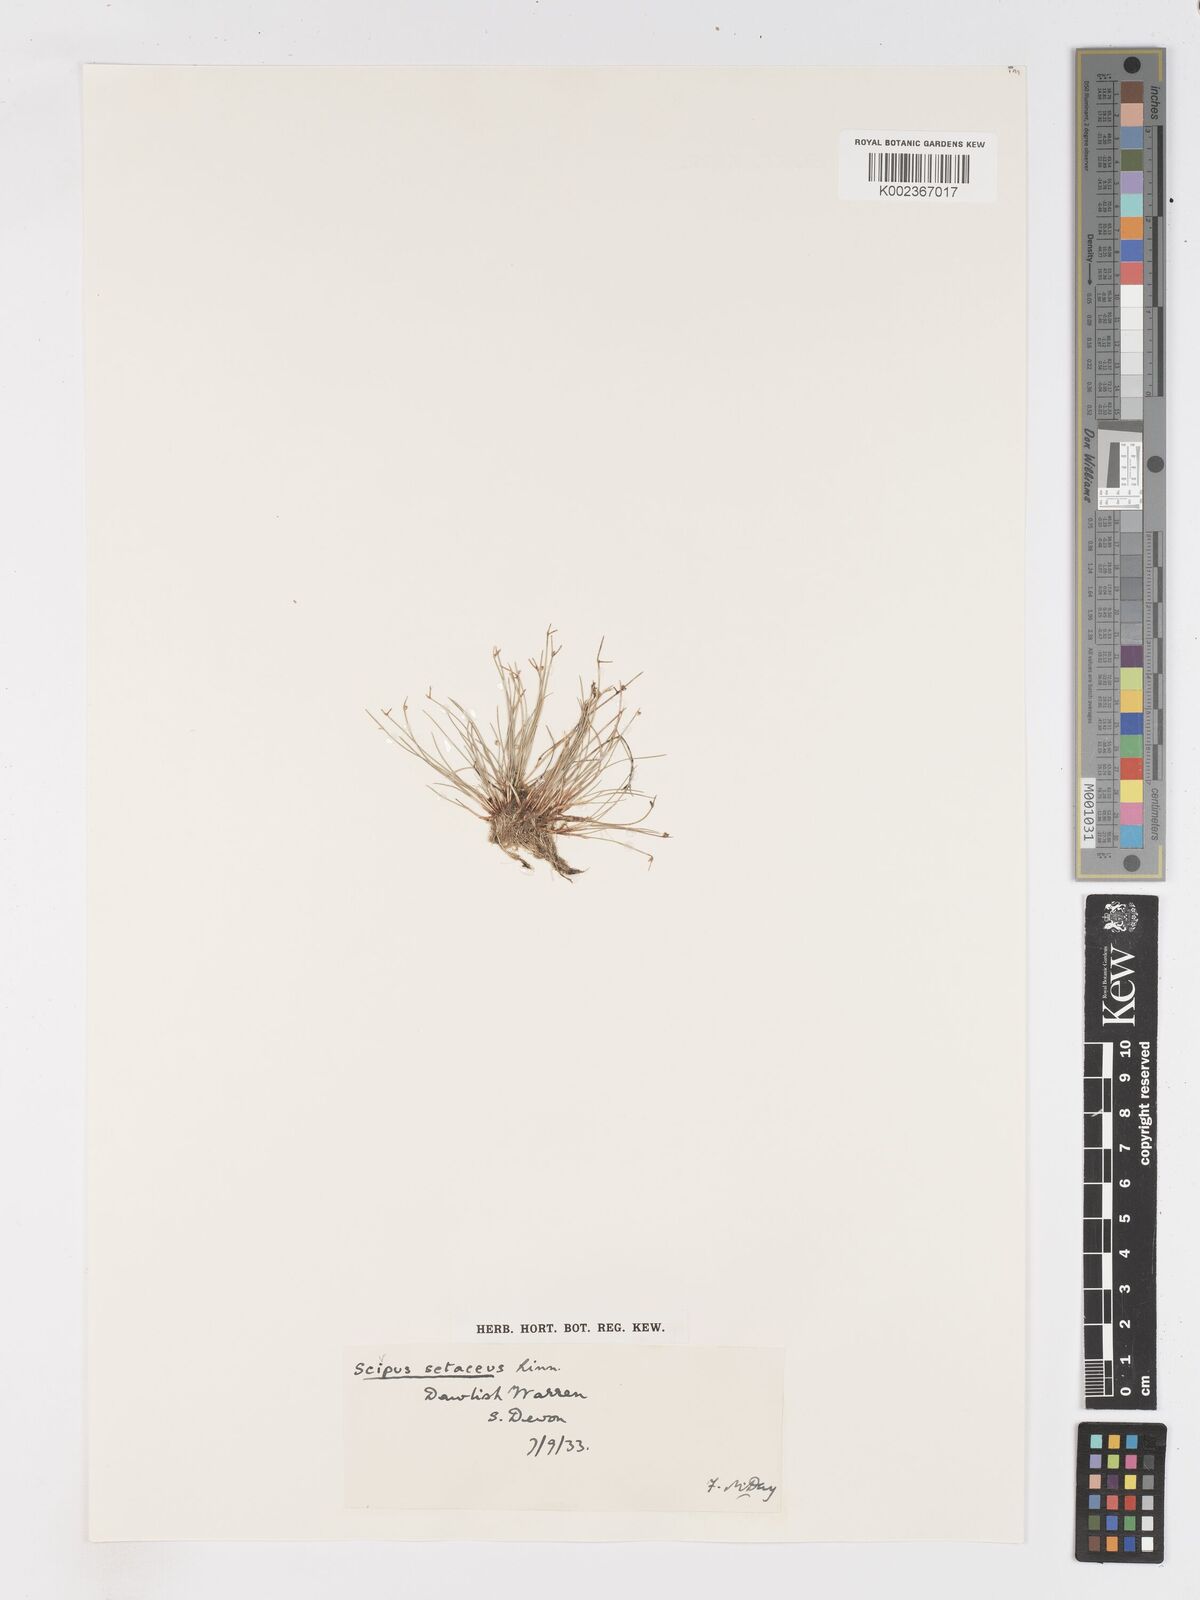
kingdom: Plantae
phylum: Tracheophyta
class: Liliopsida
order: Poales
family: Cyperaceae
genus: Isolepis
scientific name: Isolepis setacea
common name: Bristle club-rush
